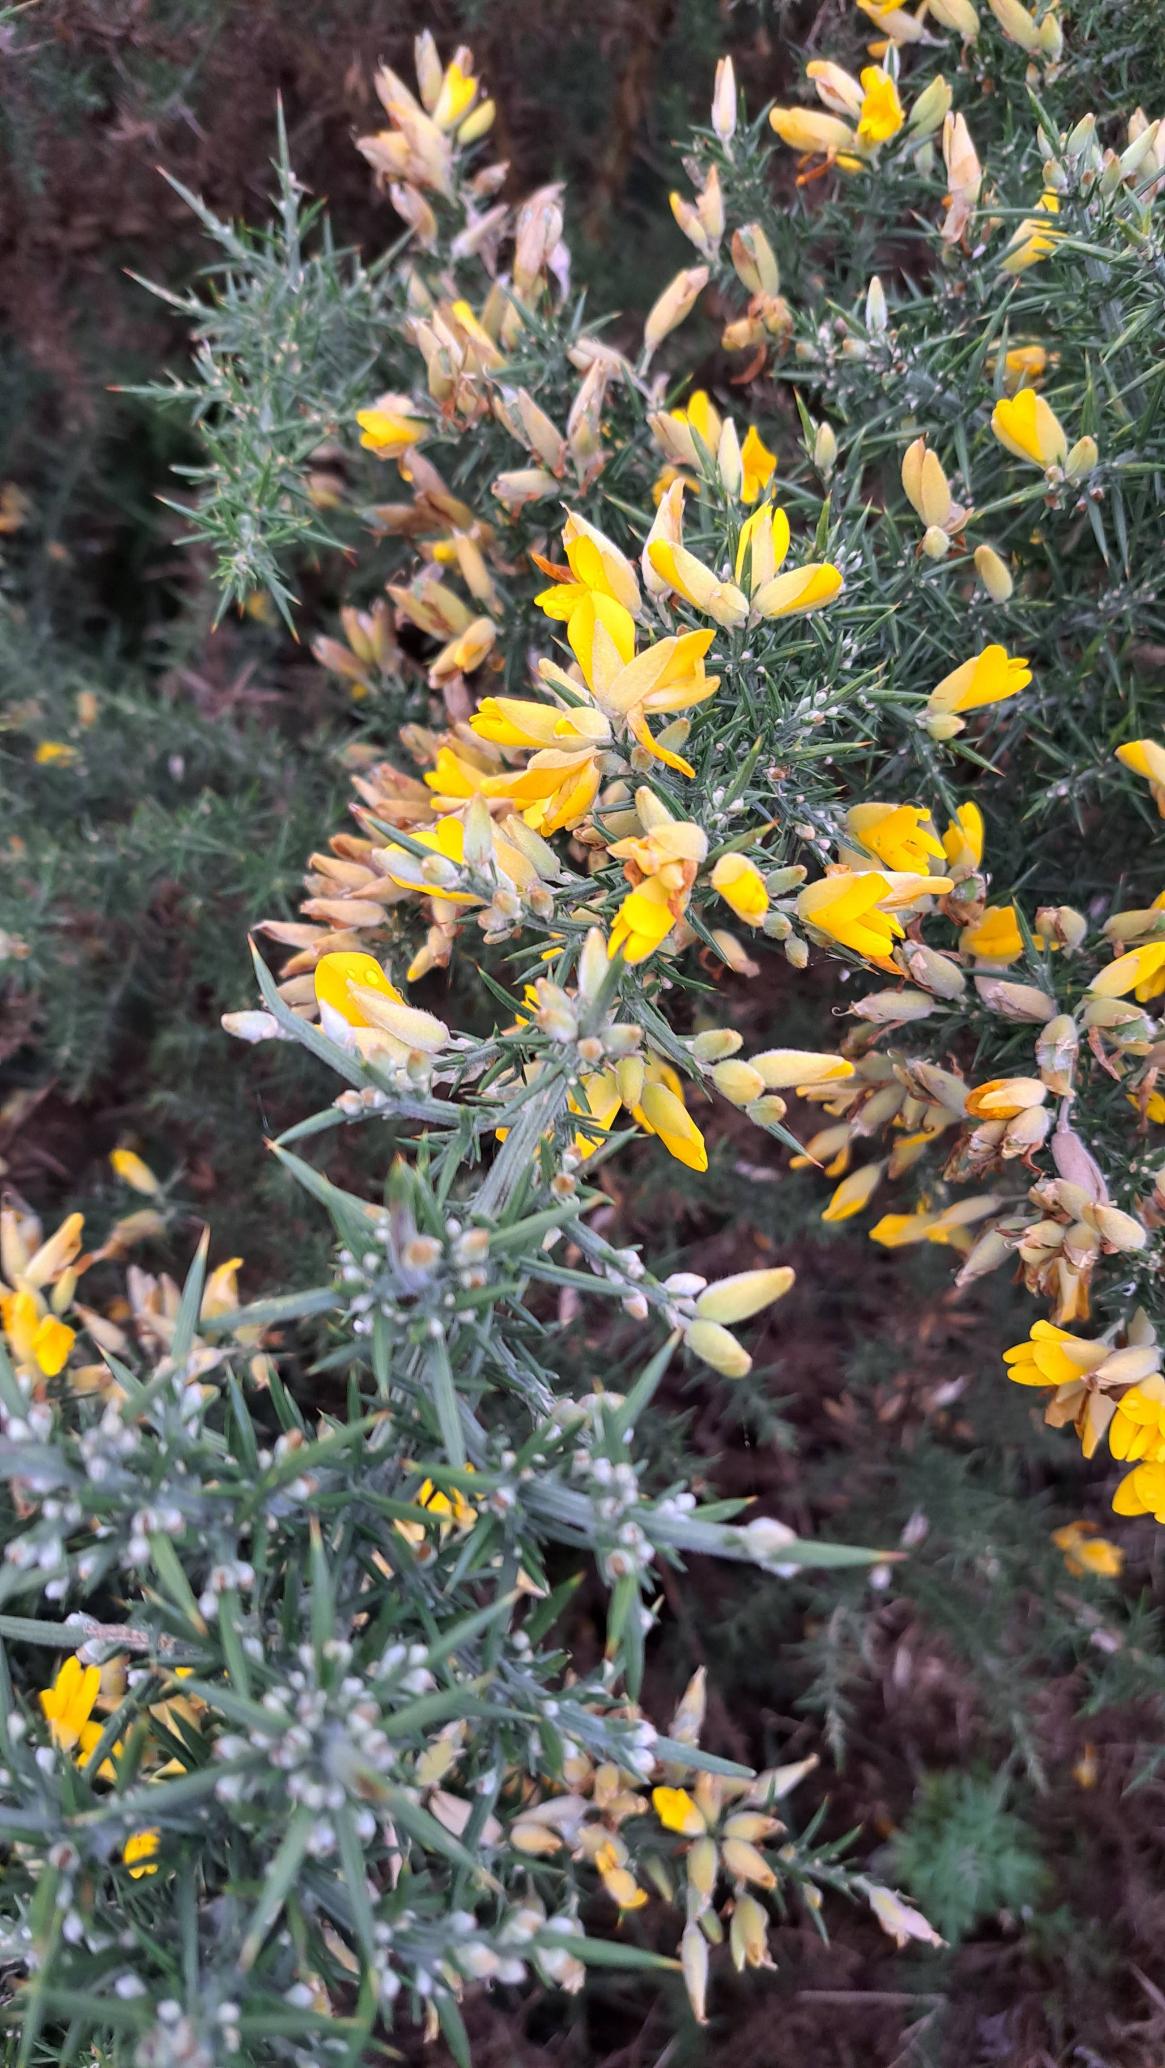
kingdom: Plantae
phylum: Tracheophyta
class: Magnoliopsida
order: Fabales
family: Fabaceae
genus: Ulex
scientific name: Ulex europaeus
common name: Tornblad
